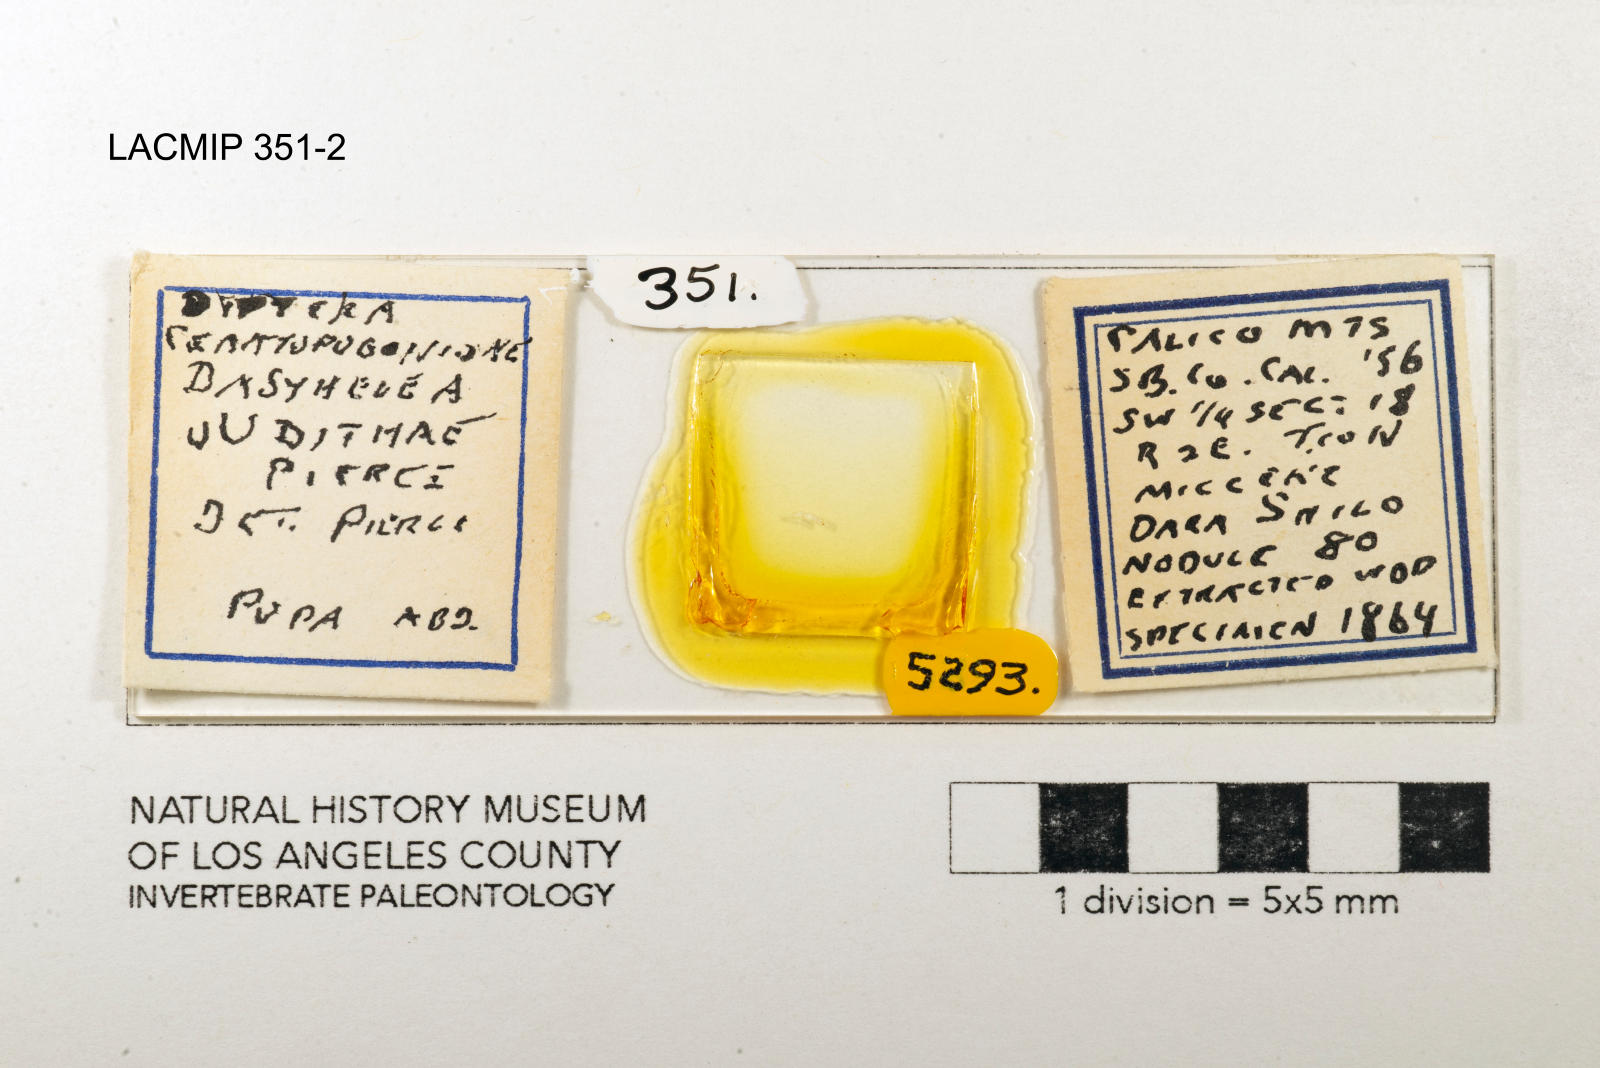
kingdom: Animalia
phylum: Arthropoda
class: Insecta
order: Diptera
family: Ceratopogonidae
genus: Dasyhelea
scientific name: Dasyhelea judithae
